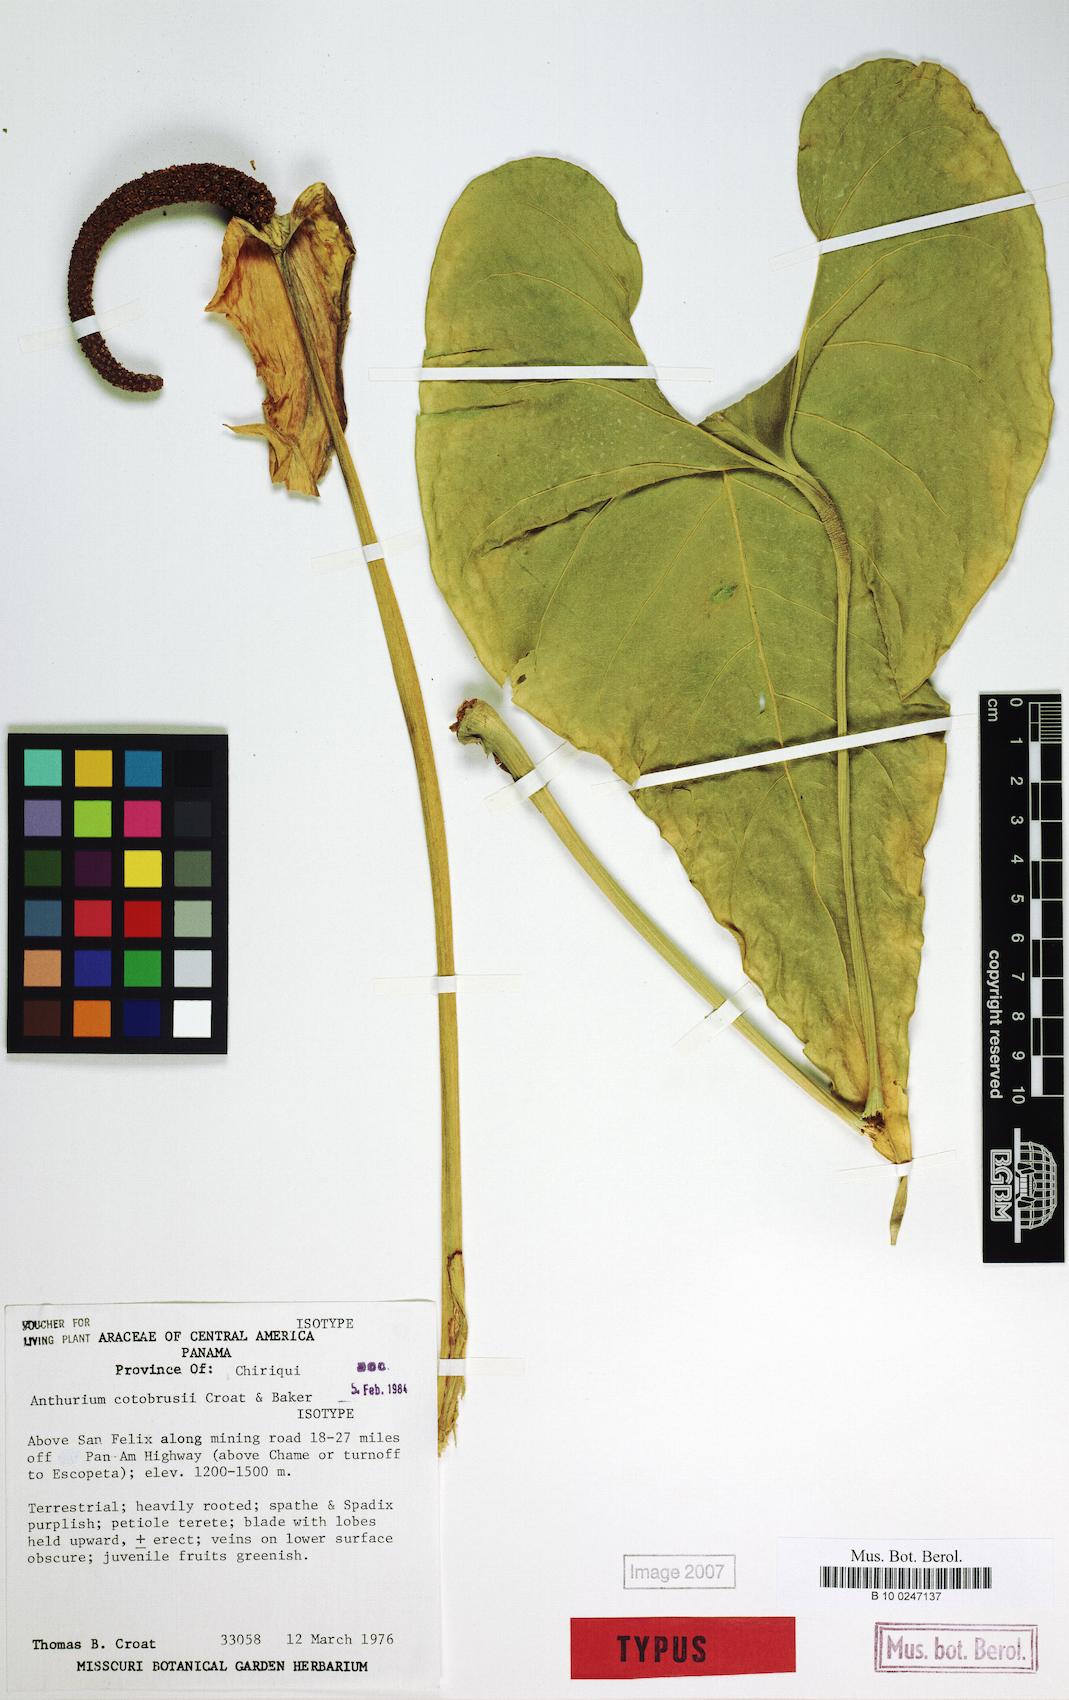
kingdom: Plantae
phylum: Tracheophyta
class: Liliopsida
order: Alismatales
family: Araceae
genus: Anthurium
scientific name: Anthurium cotobrusii
